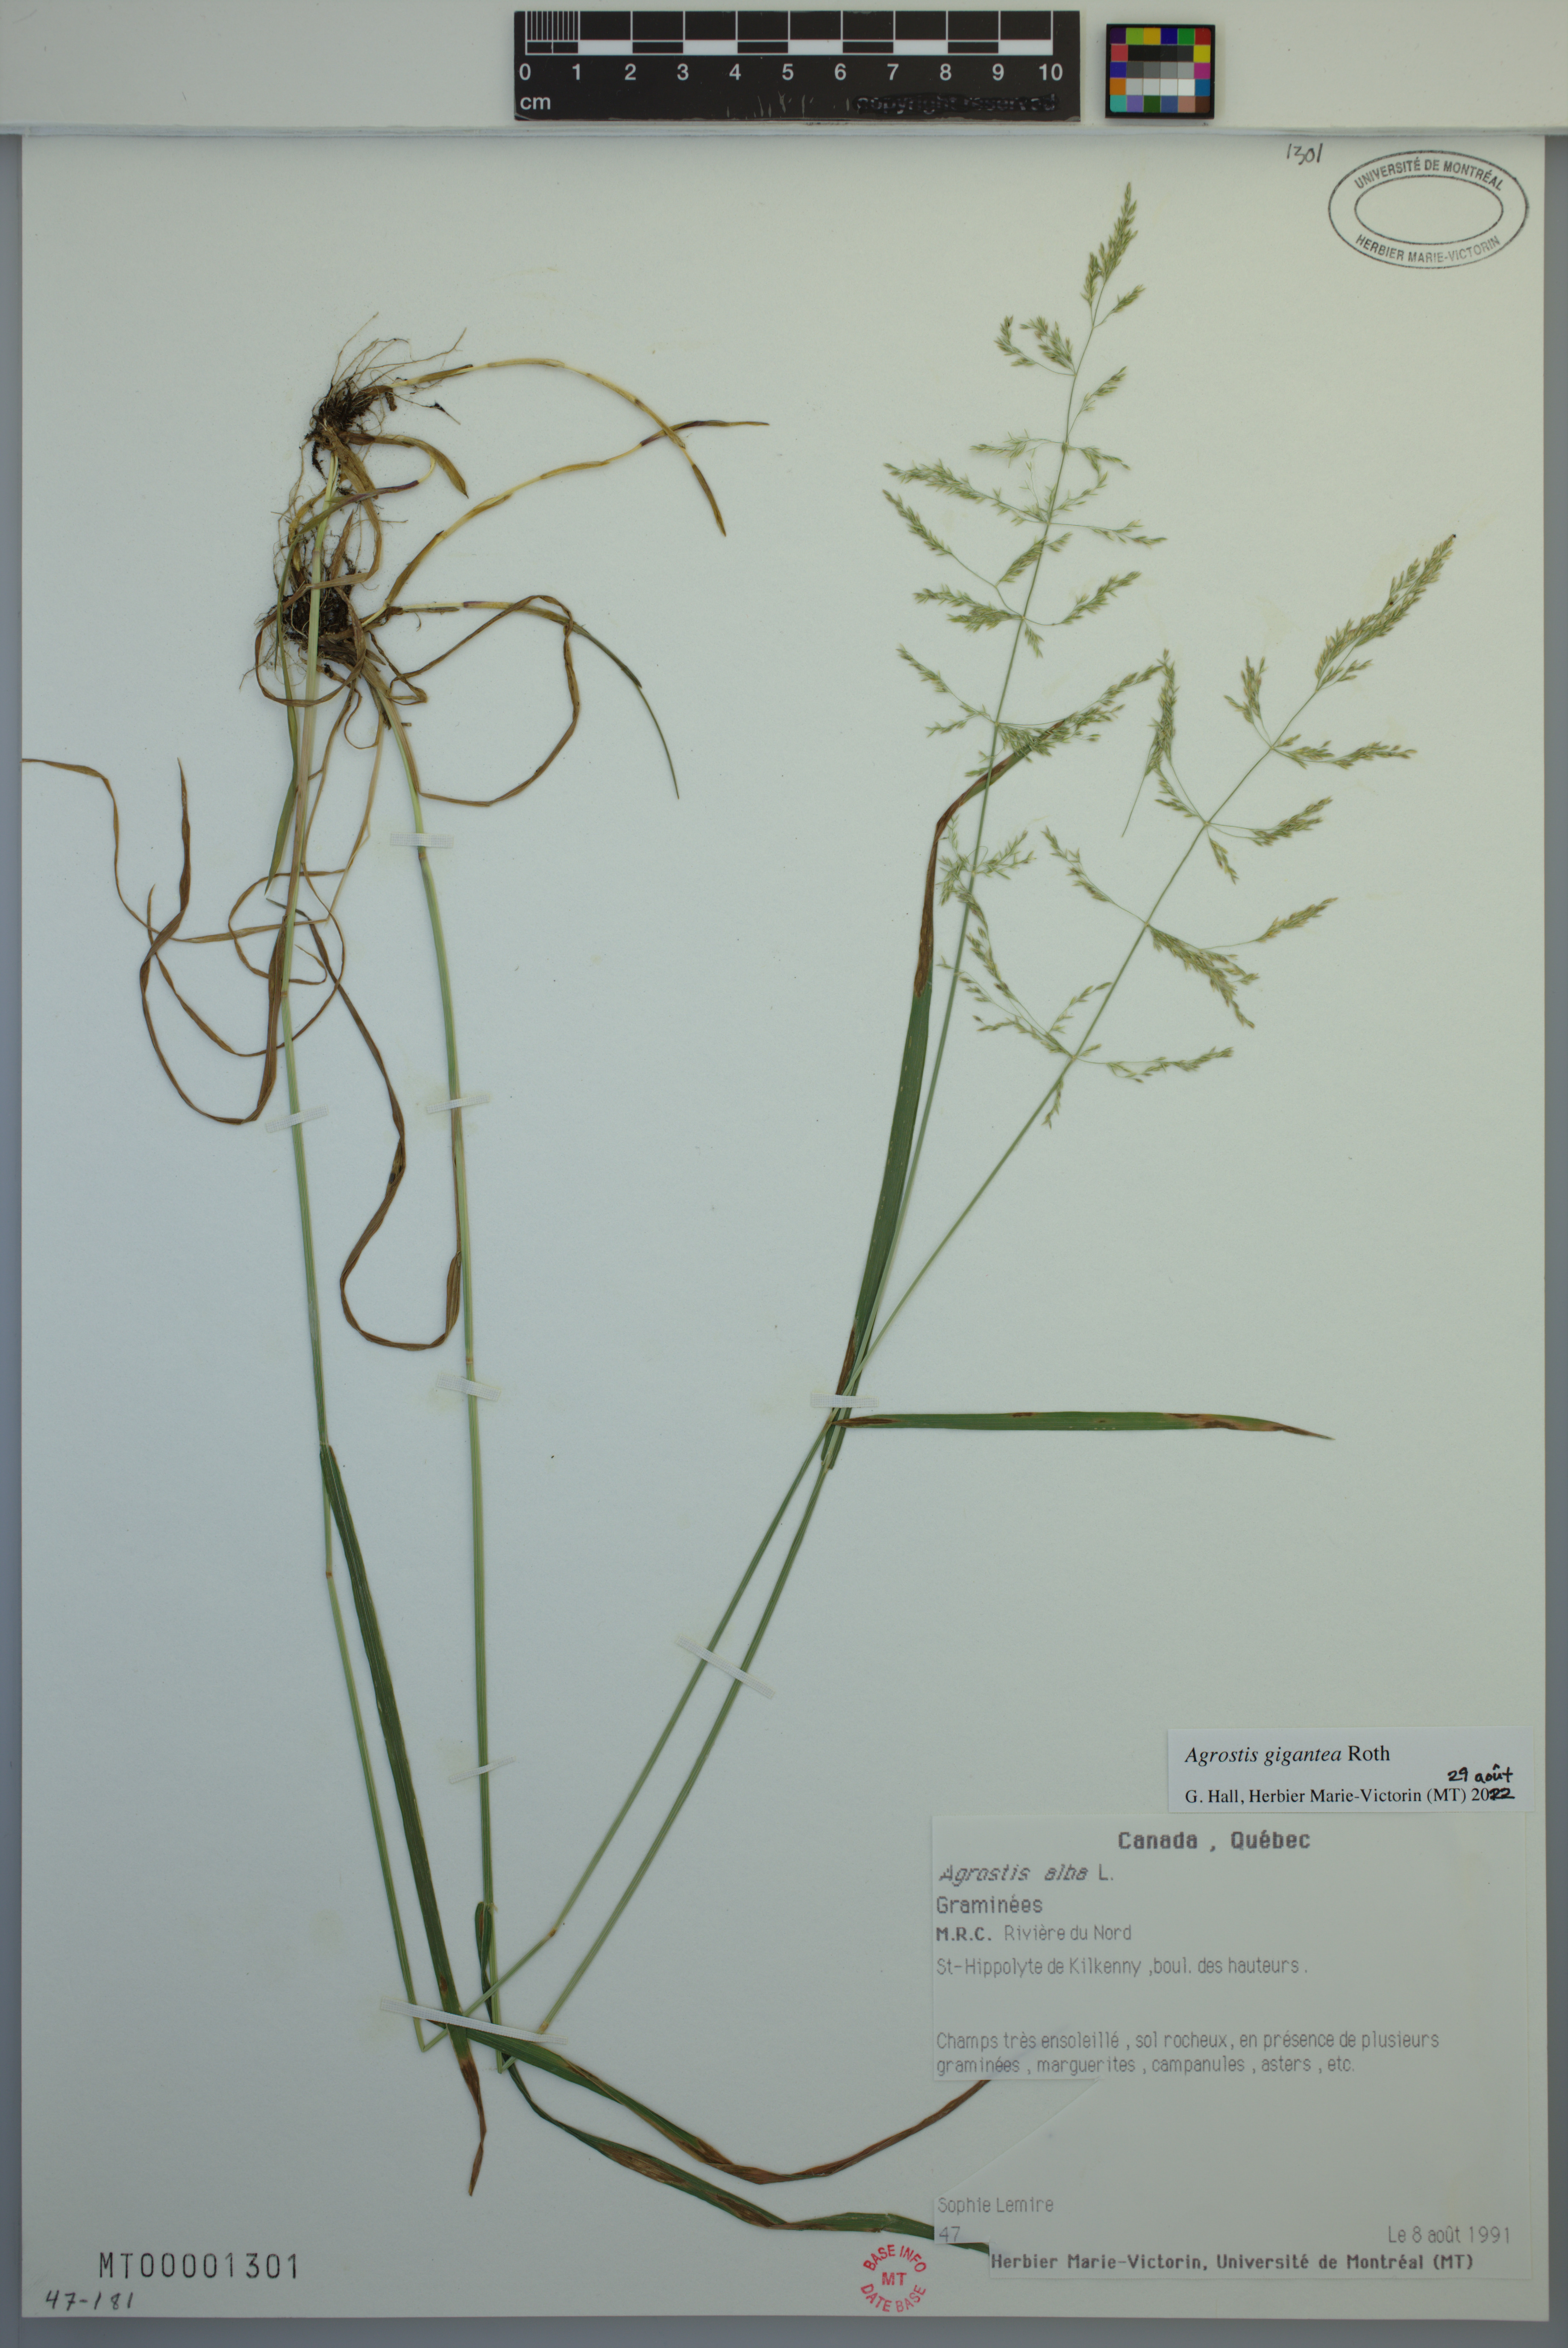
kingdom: Plantae
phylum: Tracheophyta
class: Liliopsida
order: Poales
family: Poaceae
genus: Agrostis
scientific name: Agrostis gigantea
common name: Black bent
